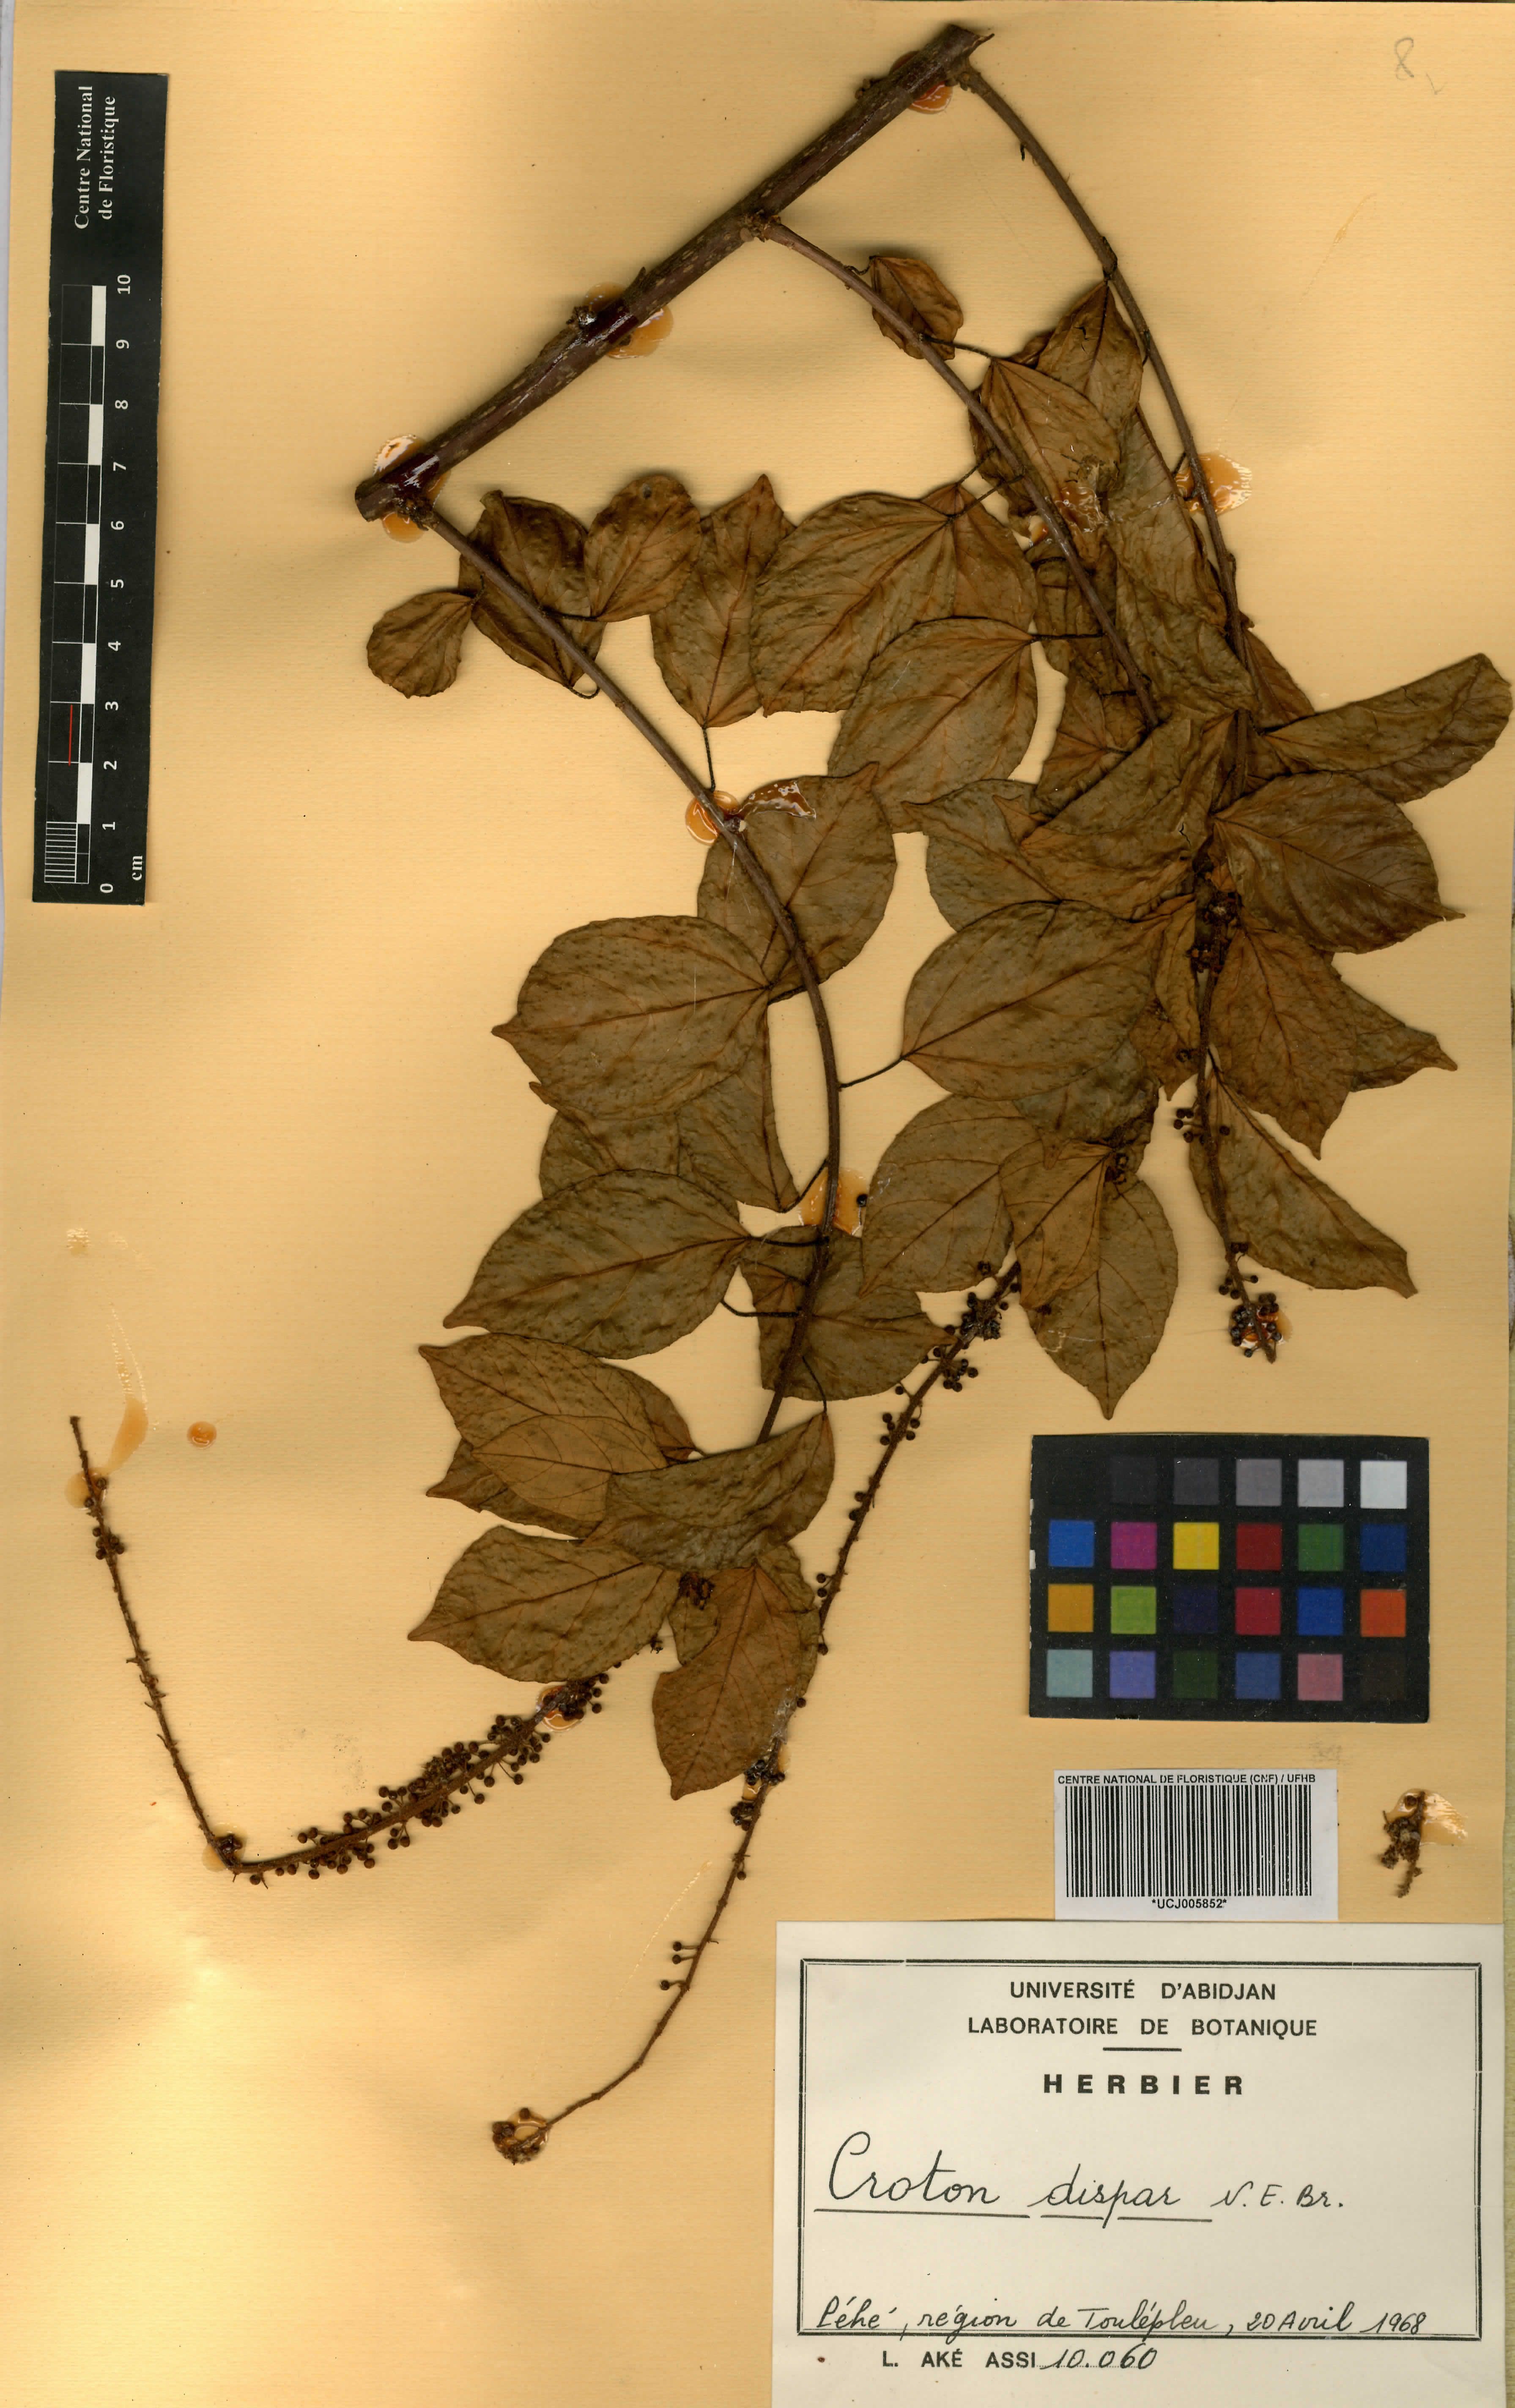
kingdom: Plantae
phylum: Tracheophyta
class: Magnoliopsida
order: Malpighiales
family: Euphorbiaceae
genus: Croton
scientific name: Croton dispar
